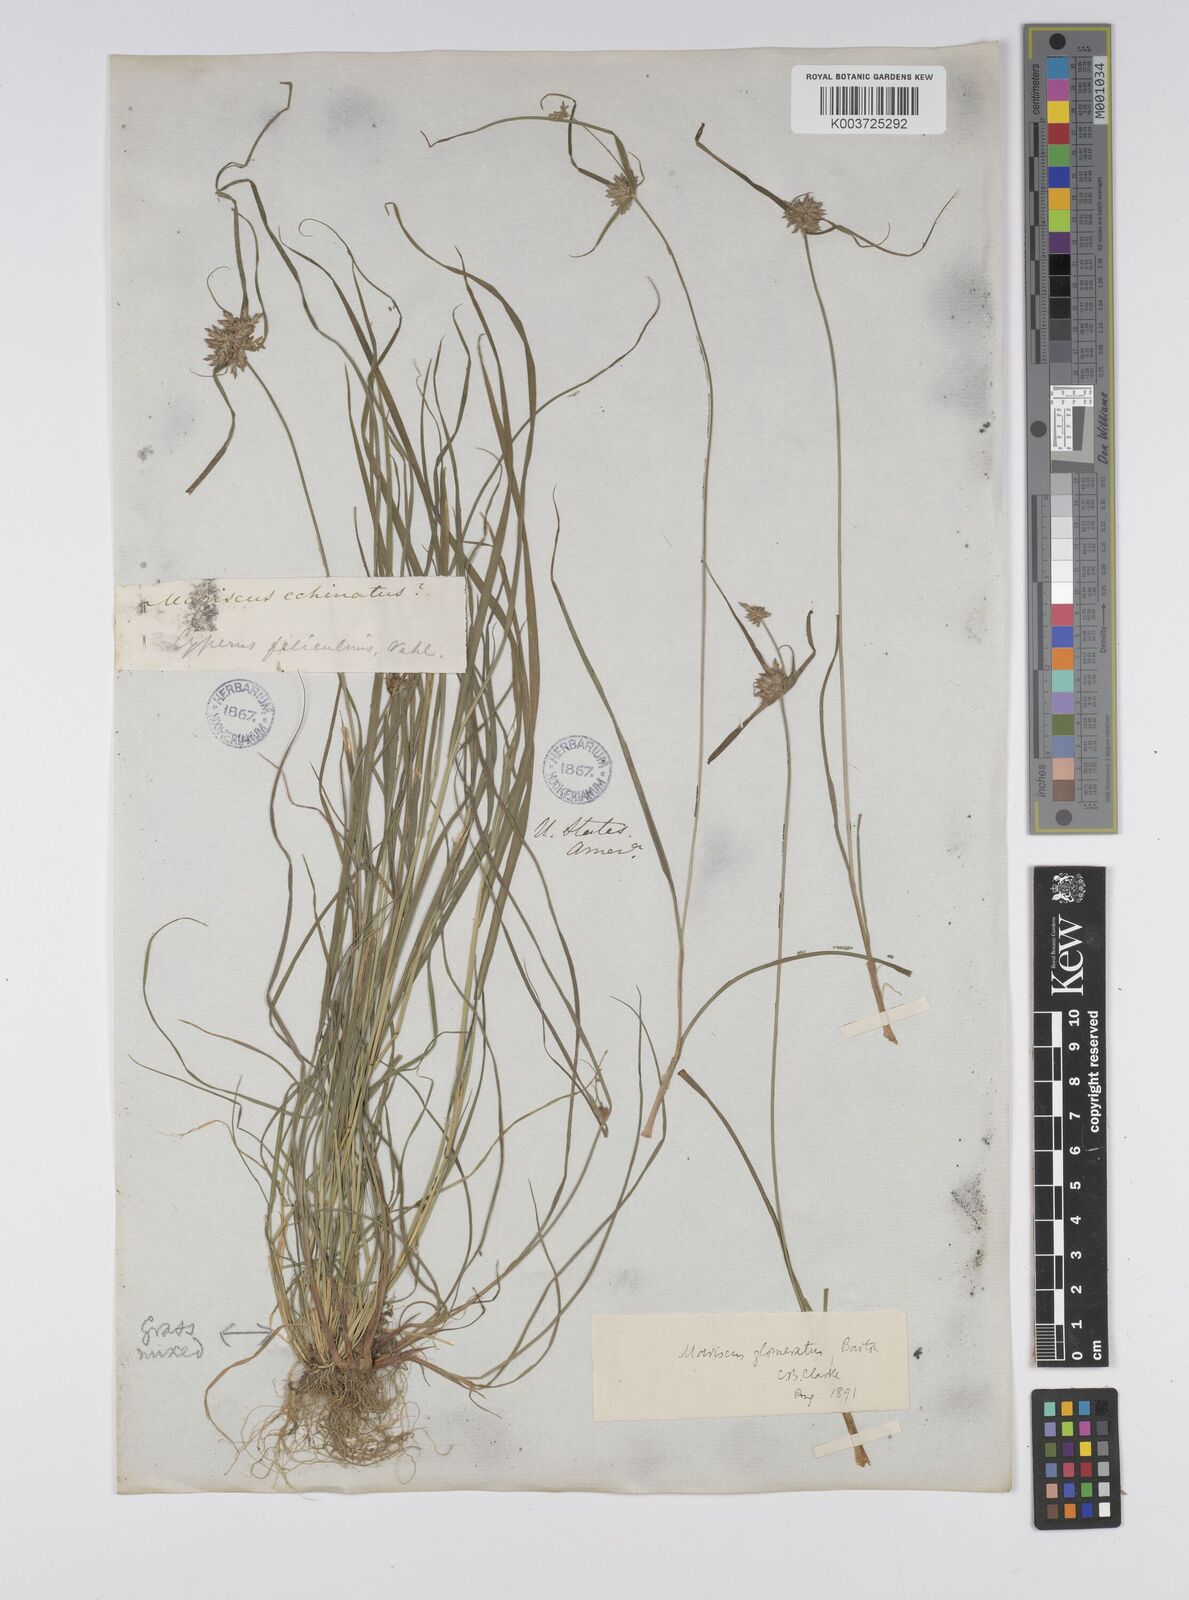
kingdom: Plantae
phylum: Tracheophyta
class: Liliopsida
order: Poales
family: Cyperaceae
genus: Cyperus
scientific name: Cyperus lupulinus
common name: Great plains flatsedge
